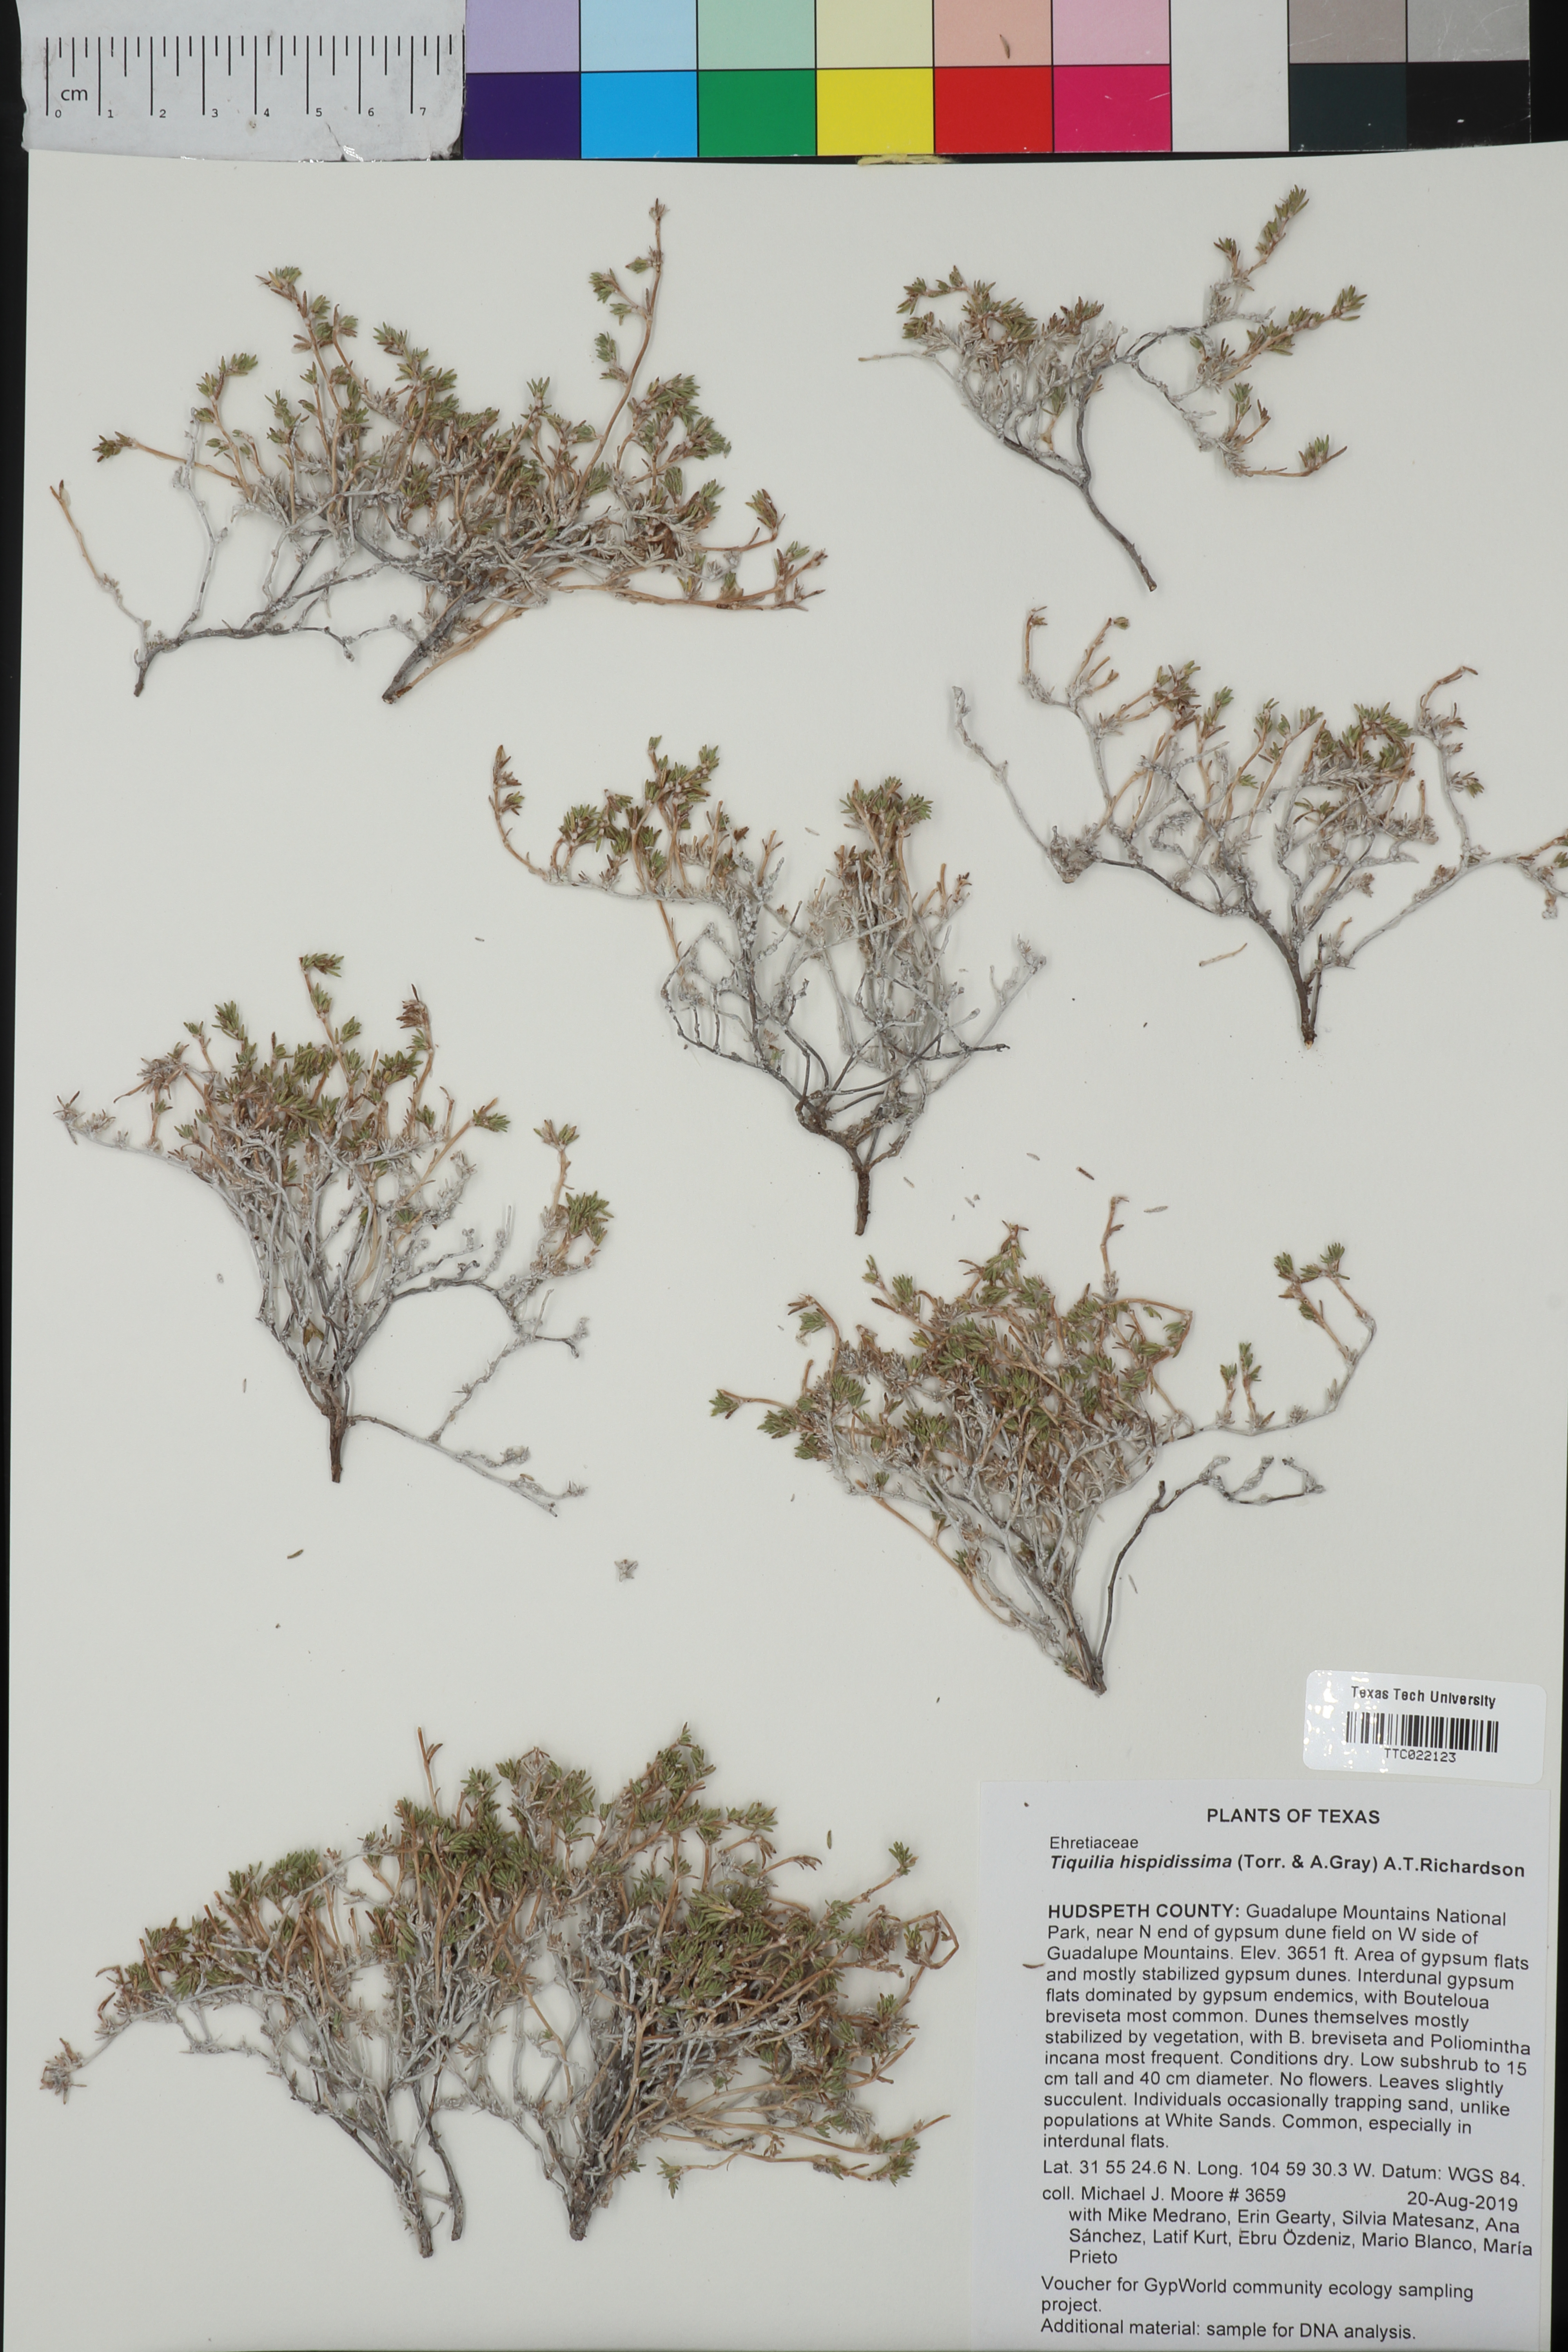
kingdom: Plantae
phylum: Tracheophyta
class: Magnoliopsida
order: Boraginales
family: Ehretiaceae
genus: Tiquilia
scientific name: Tiquilia hispidissima
